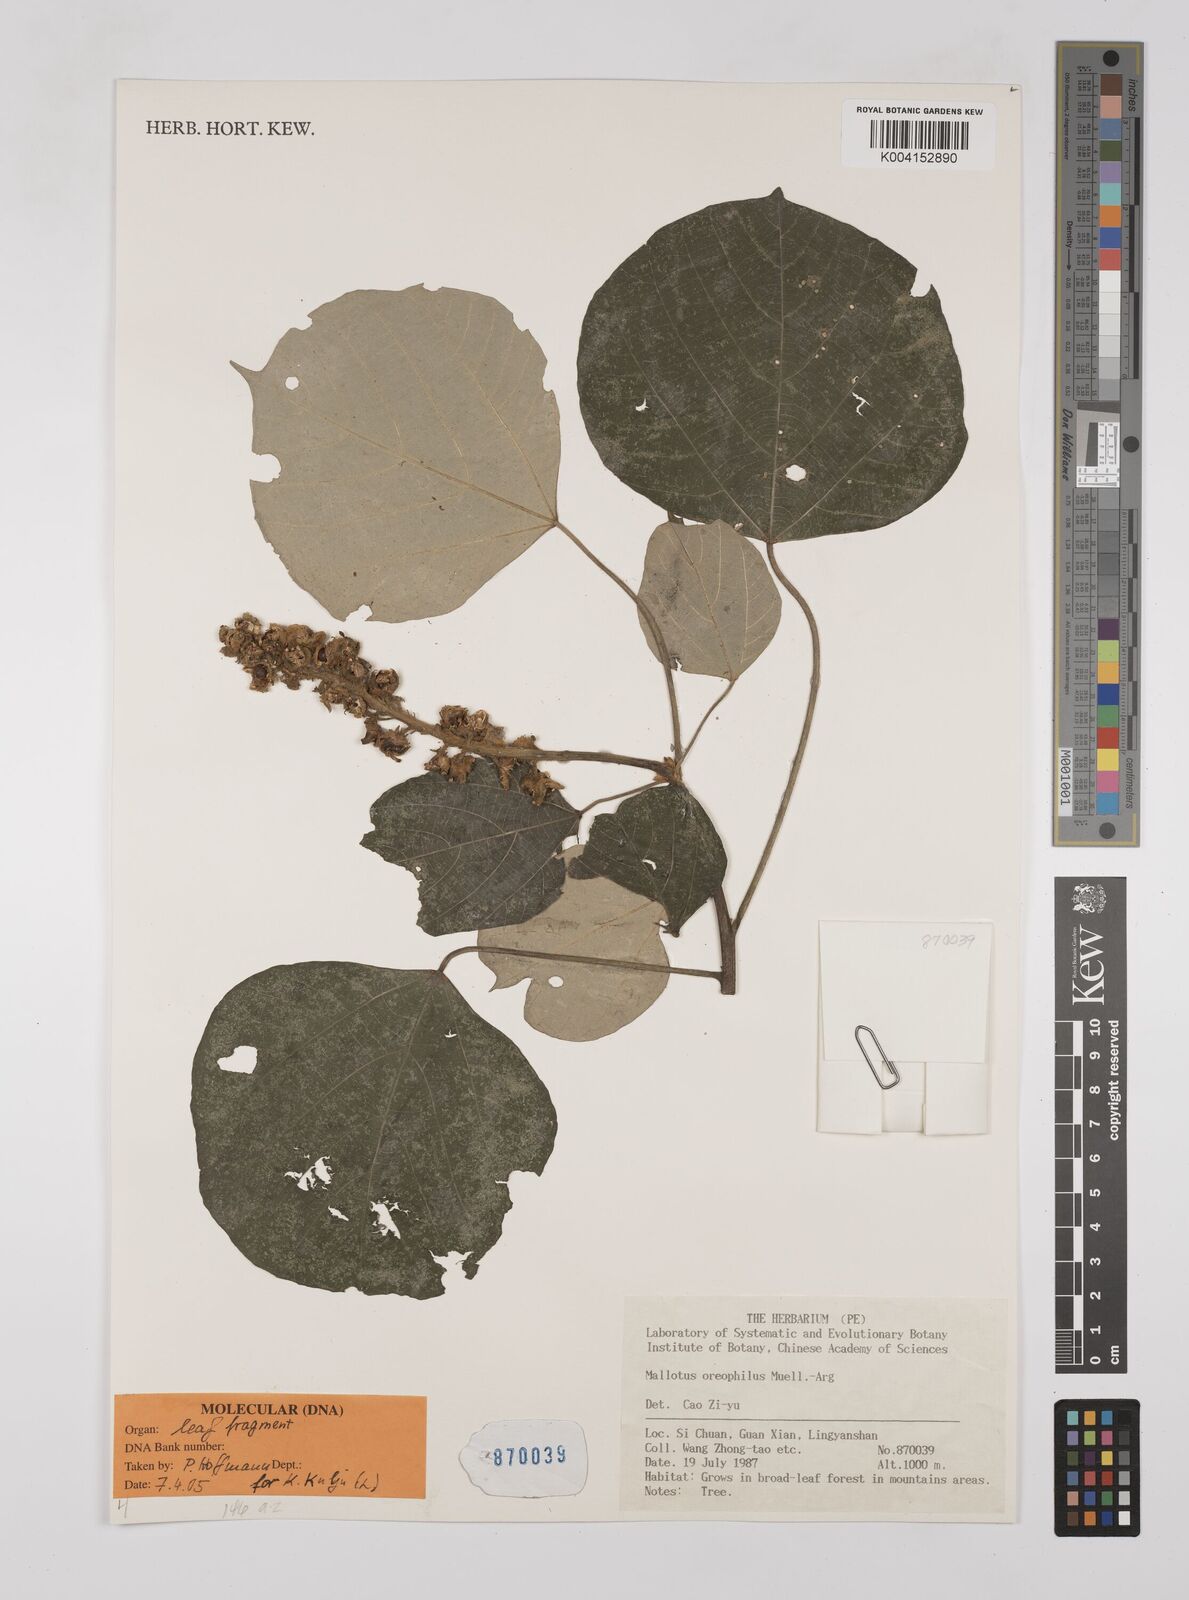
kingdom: Plantae
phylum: Tracheophyta
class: Magnoliopsida
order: Malpighiales
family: Euphorbiaceae
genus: Mallotus
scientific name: Mallotus oreophilus
